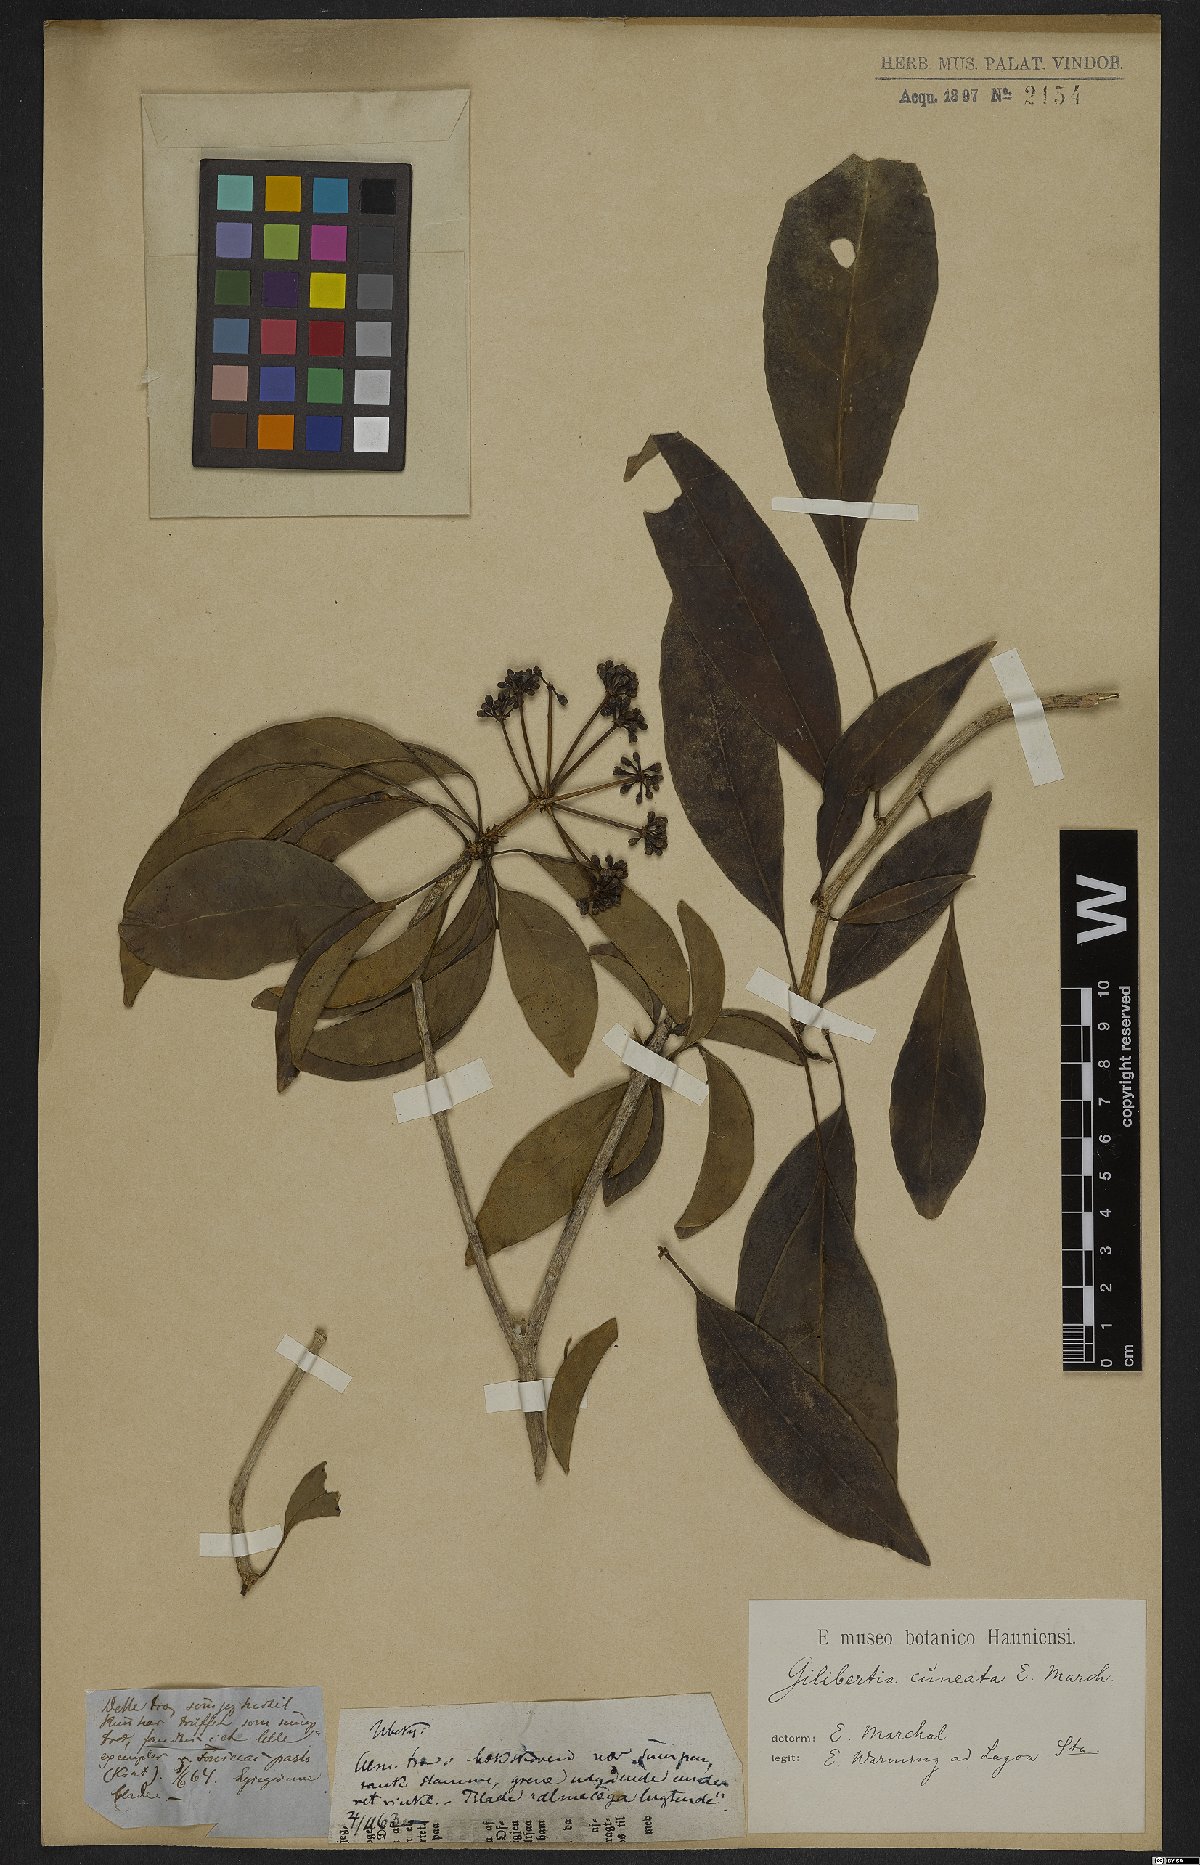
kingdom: Plantae
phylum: Tracheophyta
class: Magnoliopsida
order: Apiales
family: Araliaceae
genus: Dendropanax
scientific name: Dendropanax cuneatus
